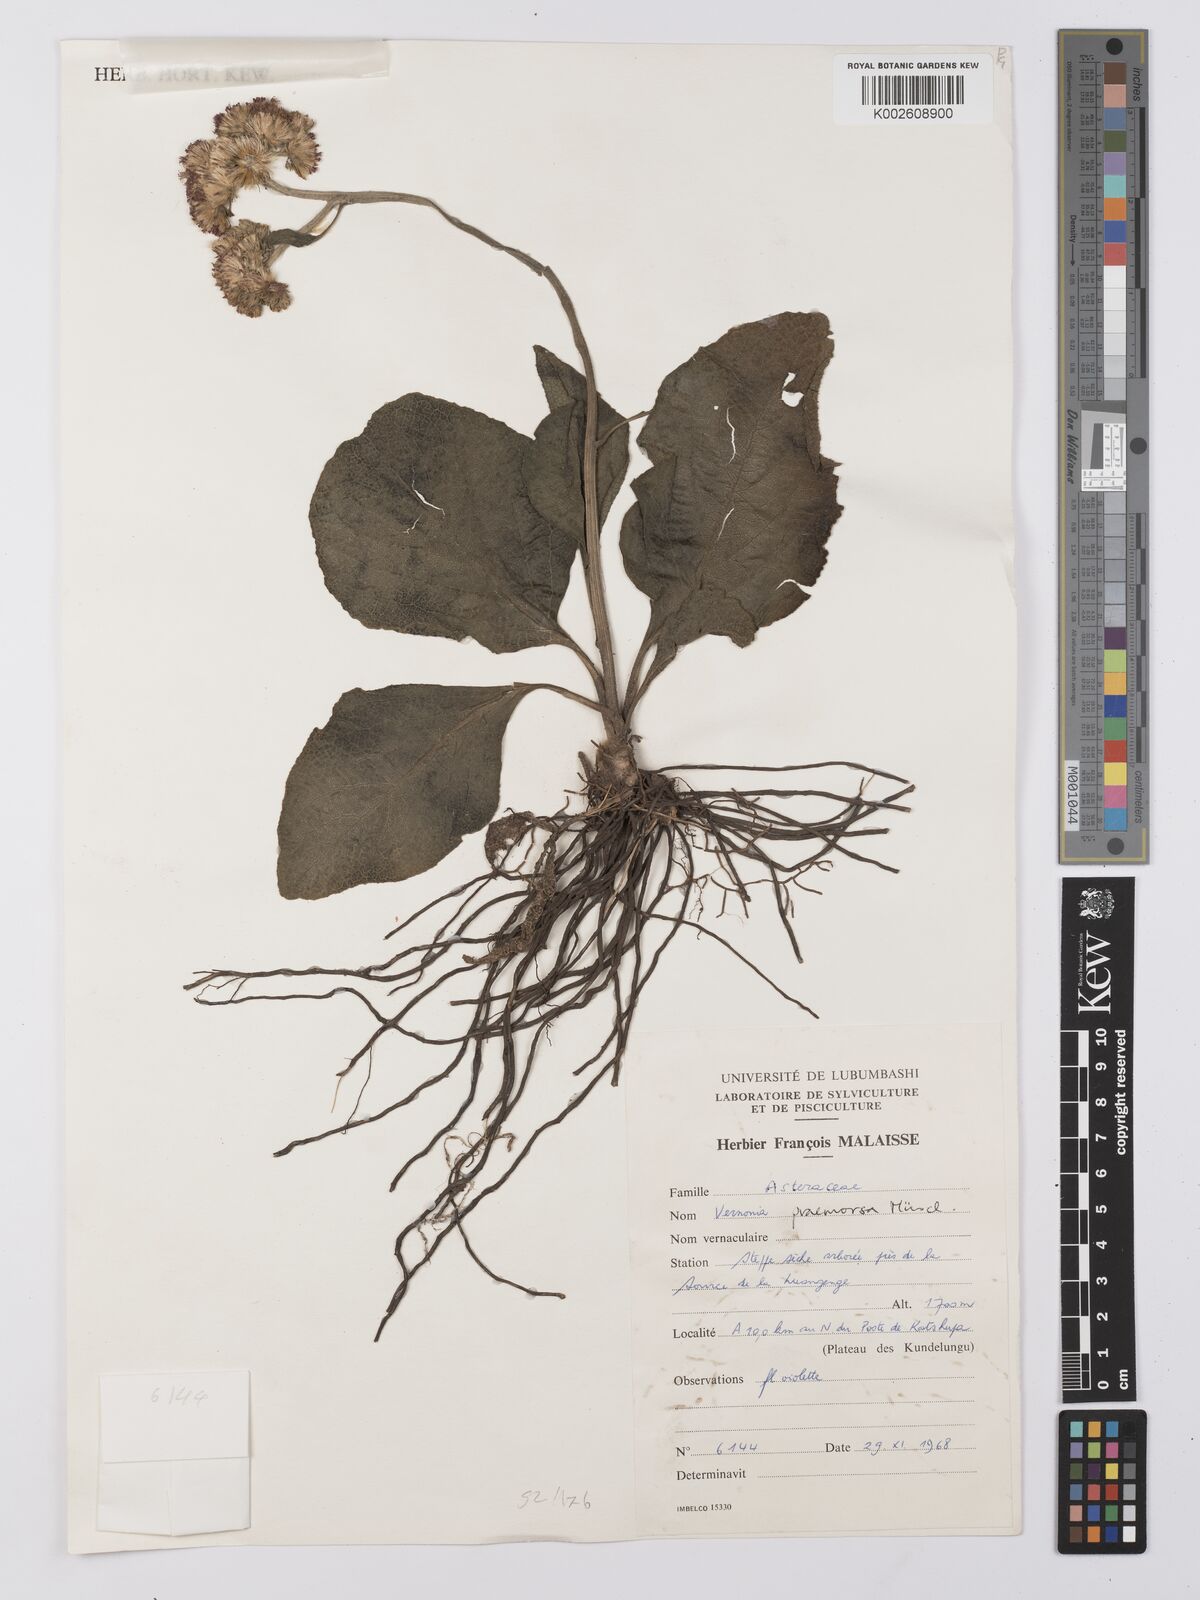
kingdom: Plantae
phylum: Tracheophyta
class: Magnoliopsida
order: Asterales
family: Asteraceae
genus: Vernonella
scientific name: Vernonella praemorsa
